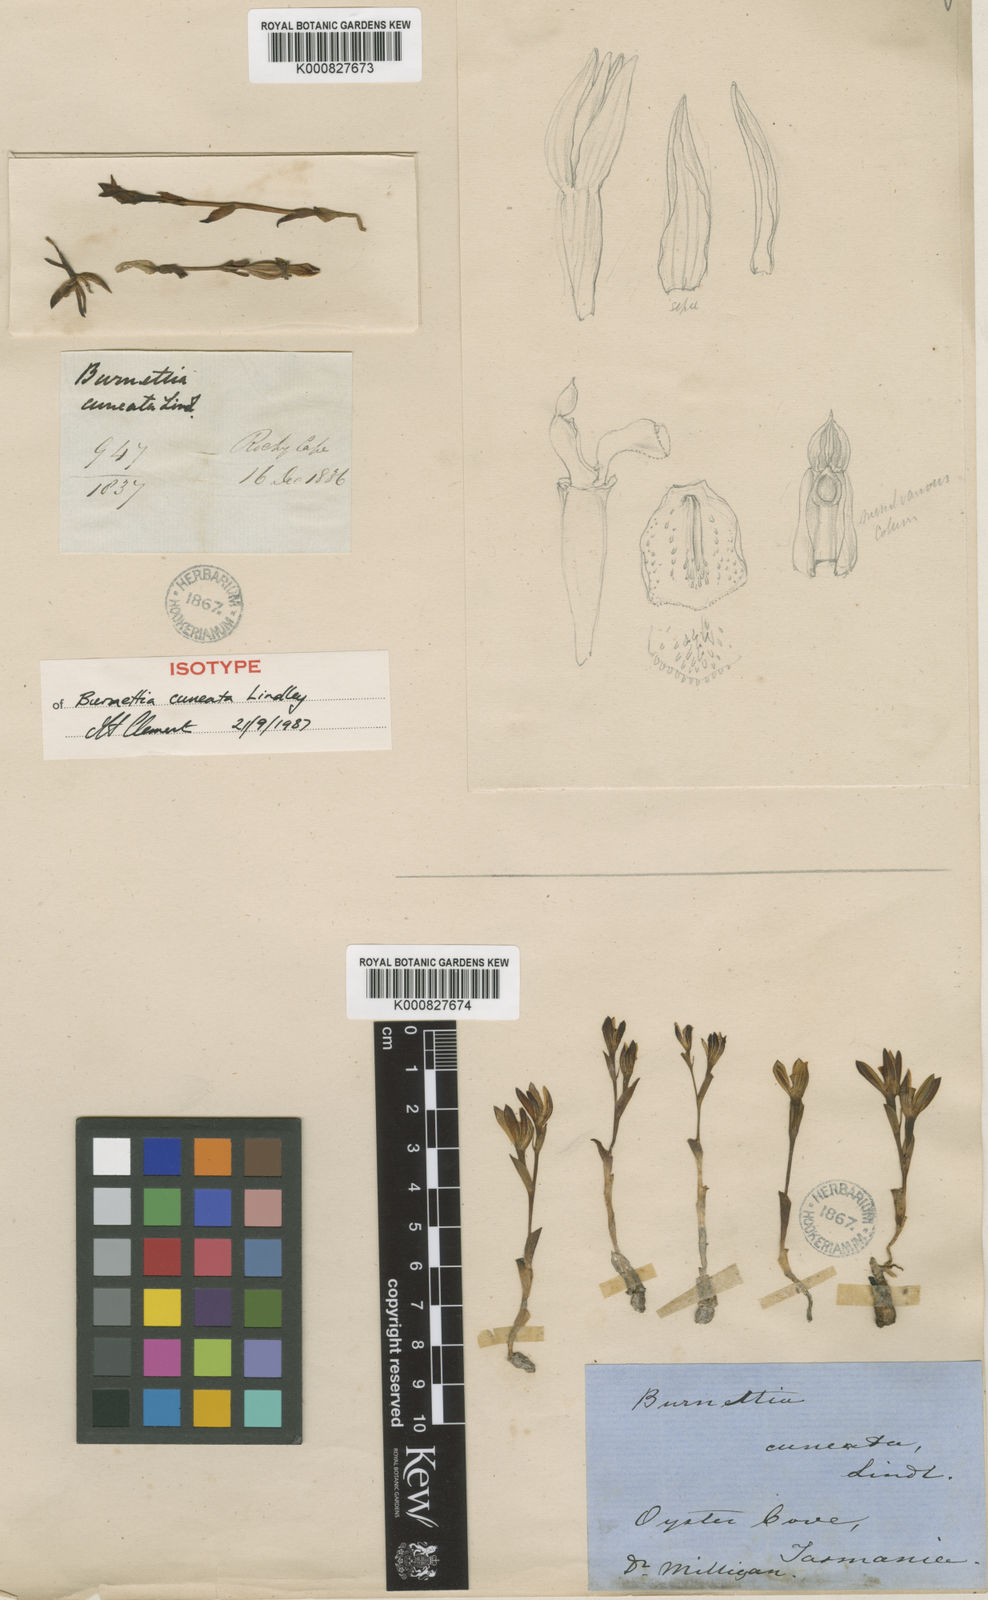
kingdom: Plantae
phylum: Tracheophyta
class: Liliopsida
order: Asparagales
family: Orchidaceae
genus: Burnettia
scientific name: Burnettia cuneata
